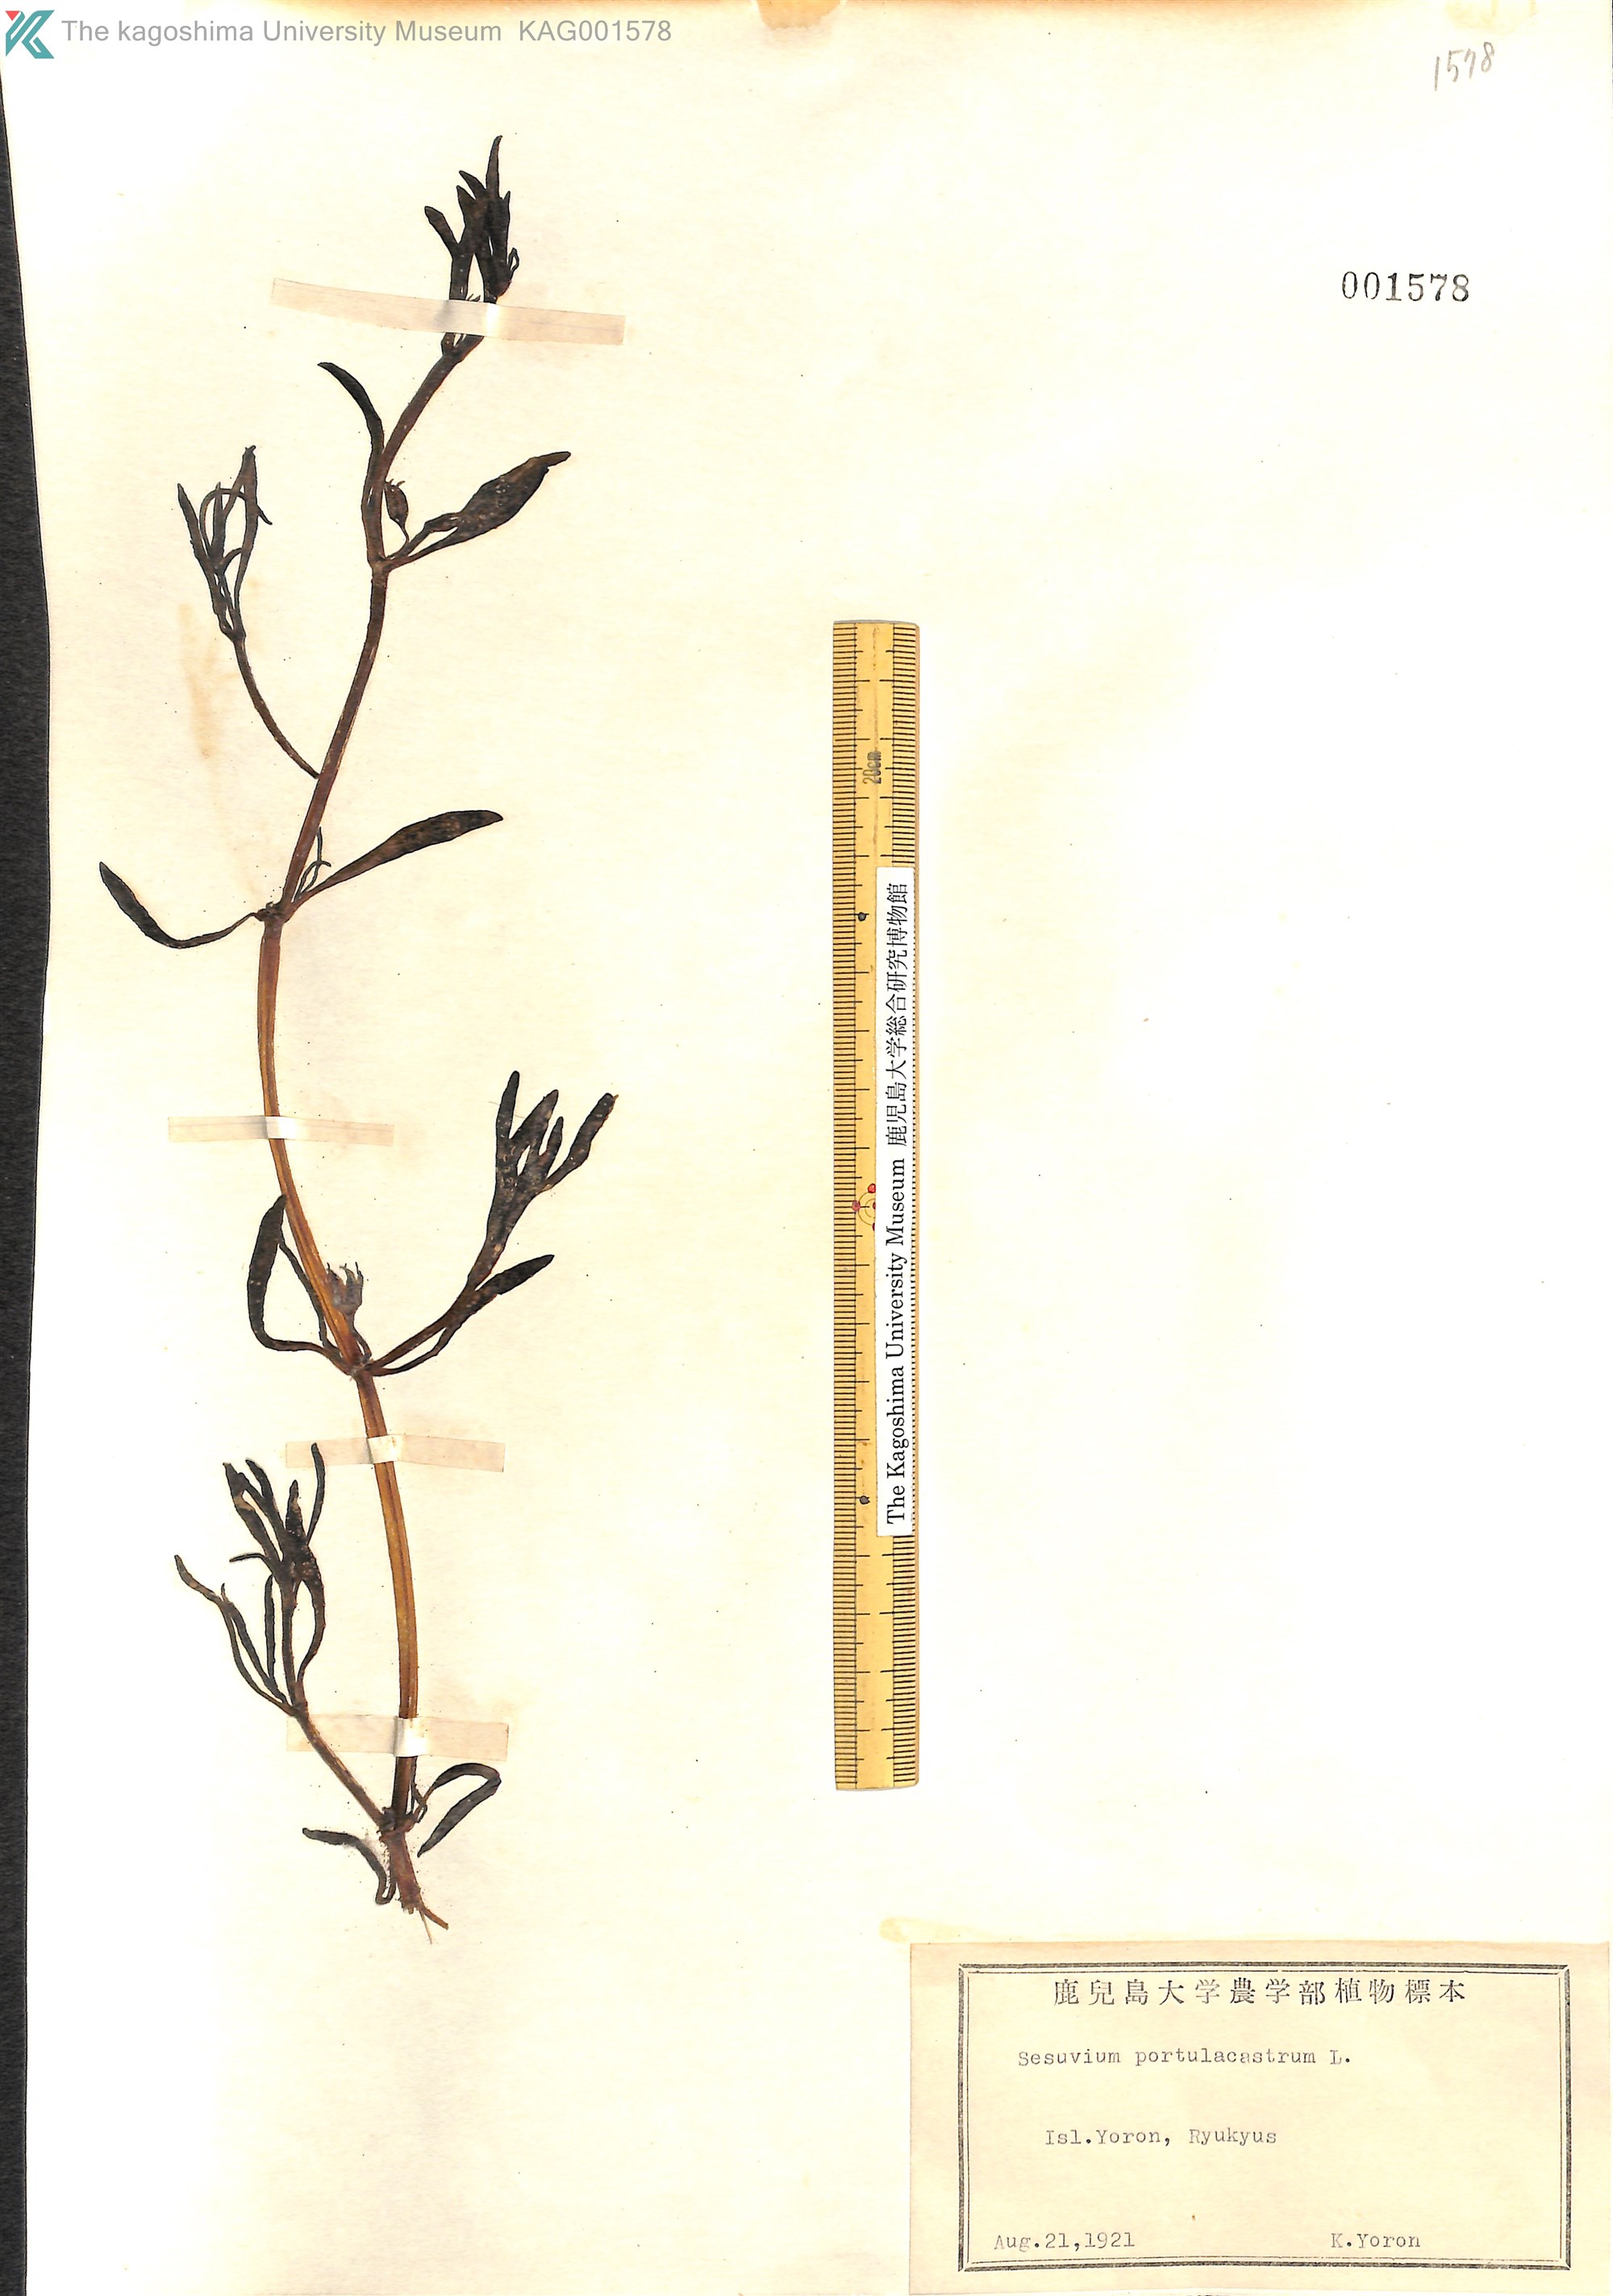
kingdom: Plantae
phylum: Tracheophyta
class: Magnoliopsida
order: Caryophyllales
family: Aizoaceae
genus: Sesuvium
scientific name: Sesuvium portulacastrum
